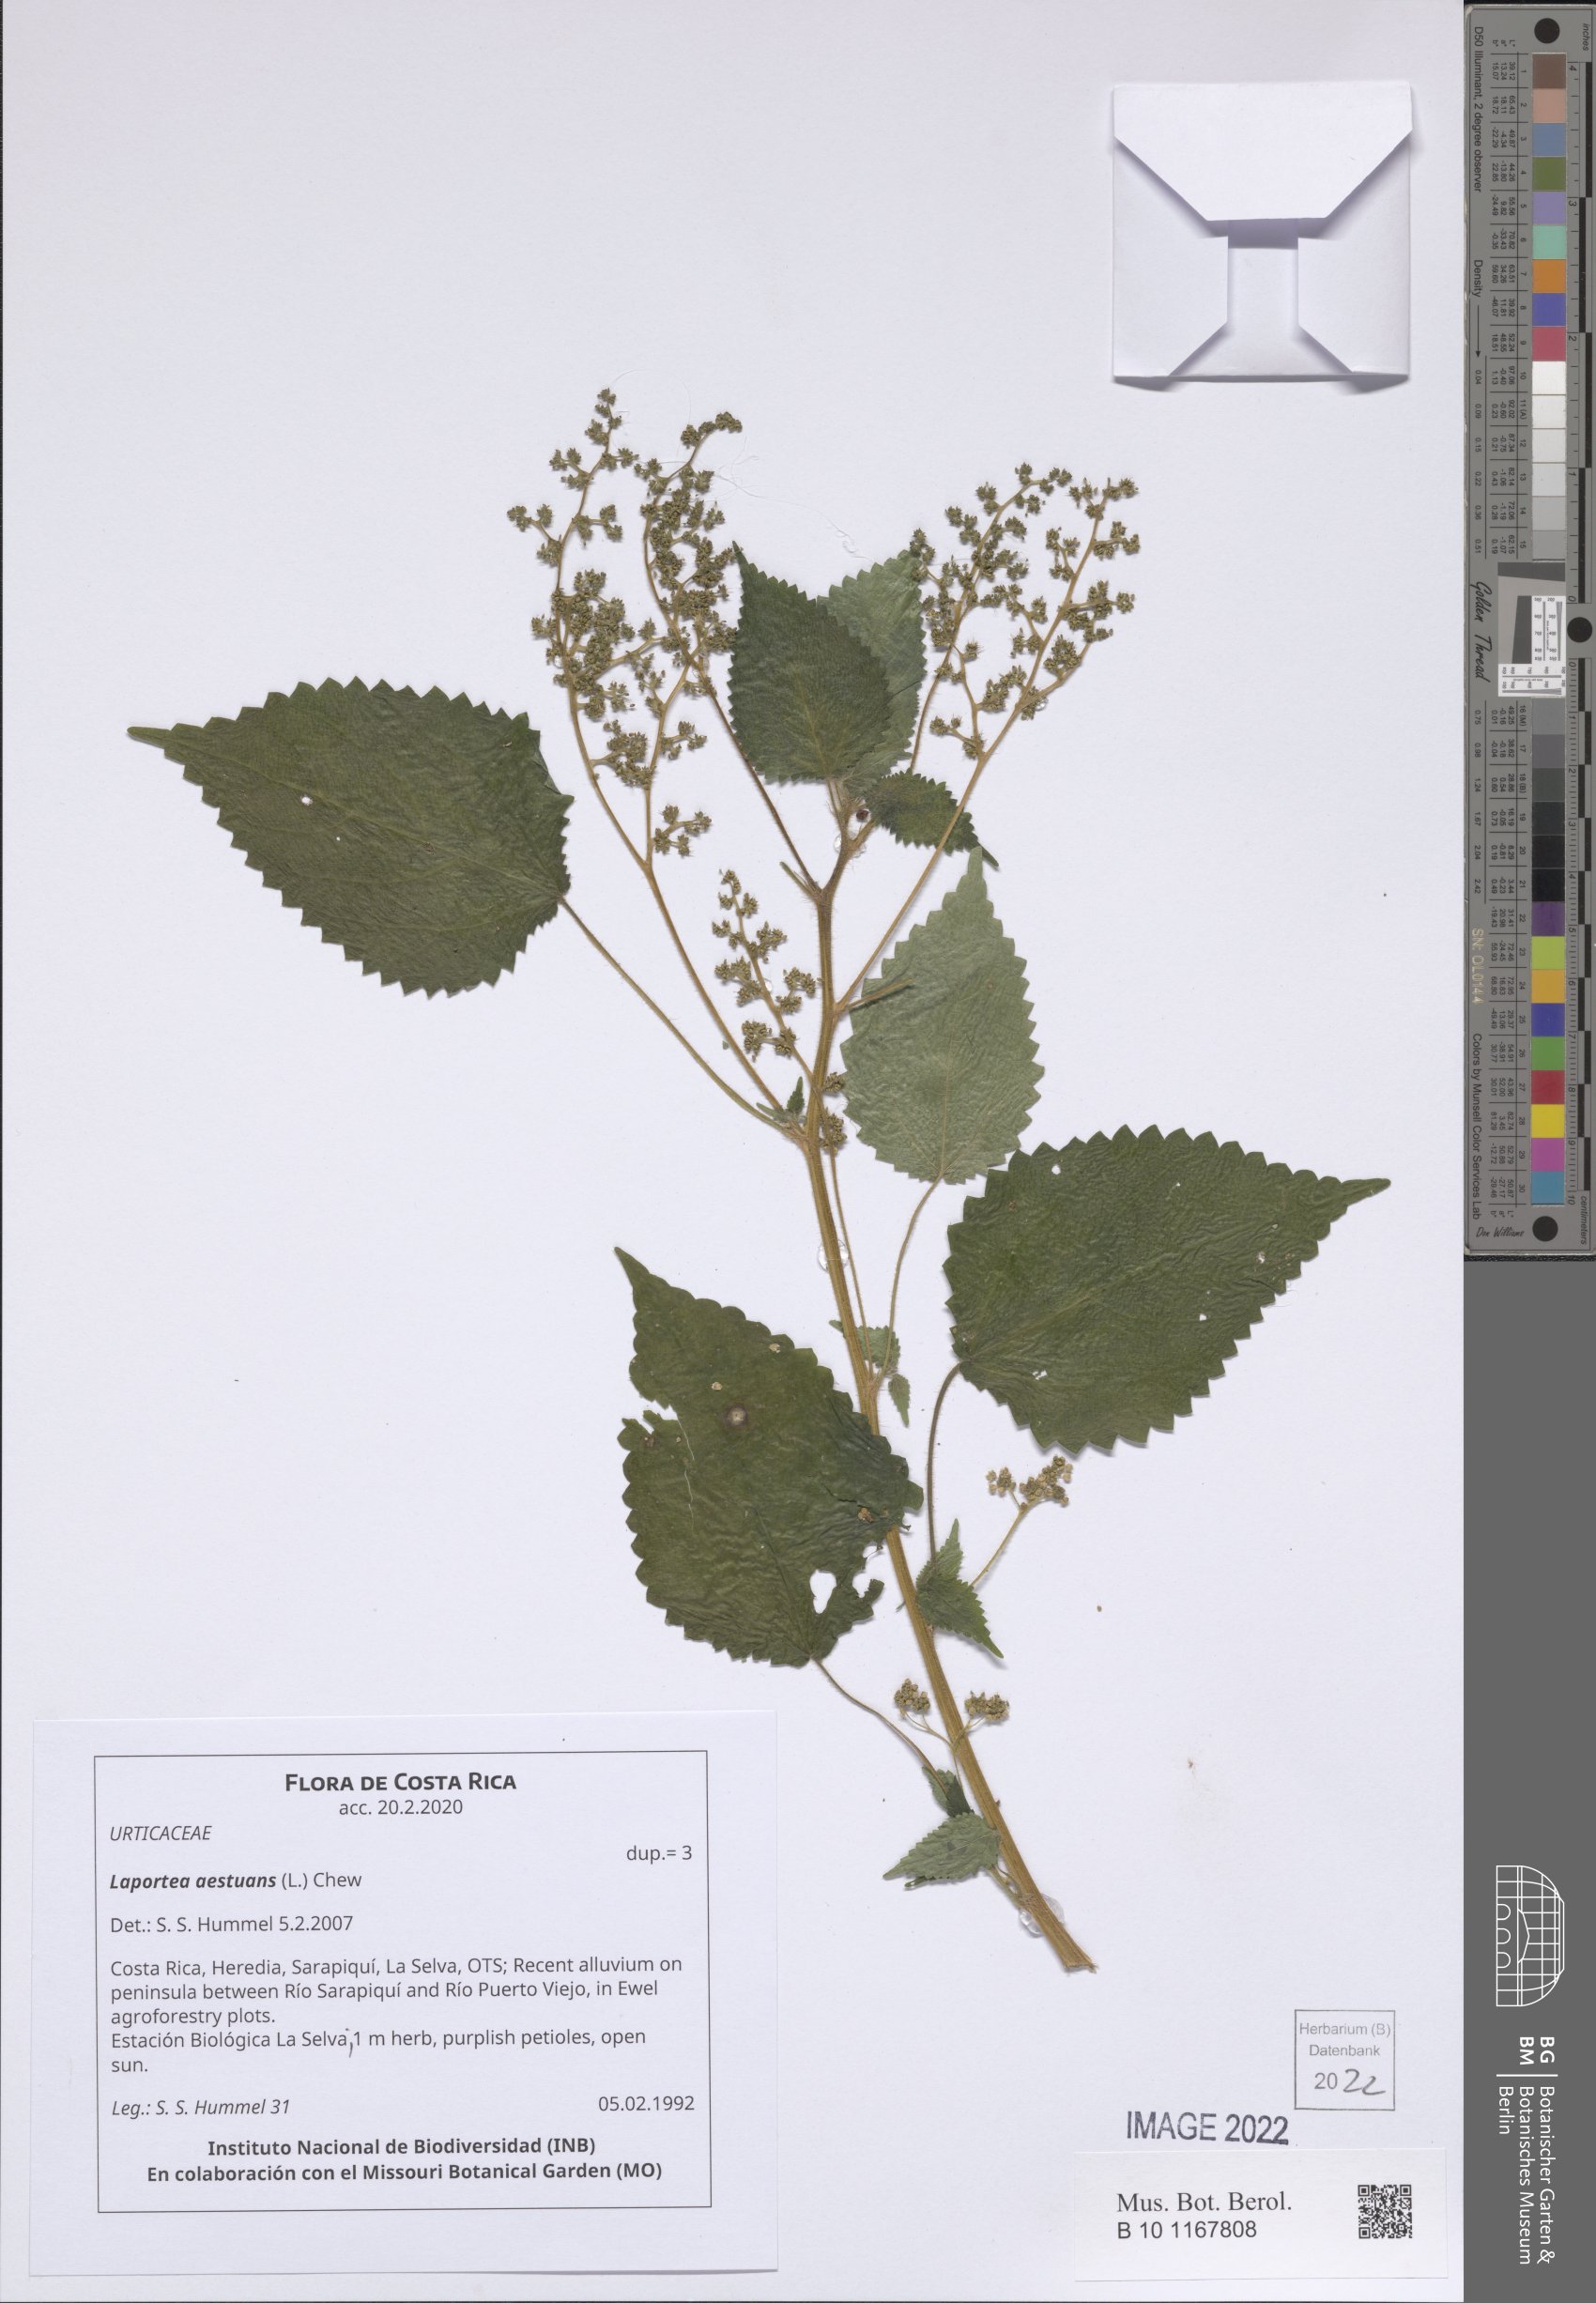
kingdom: Plantae
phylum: Tracheophyta
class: Magnoliopsida
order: Rosales
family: Urticaceae
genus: Laportea
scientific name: Laportea aestuans
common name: West indian woodnettle
